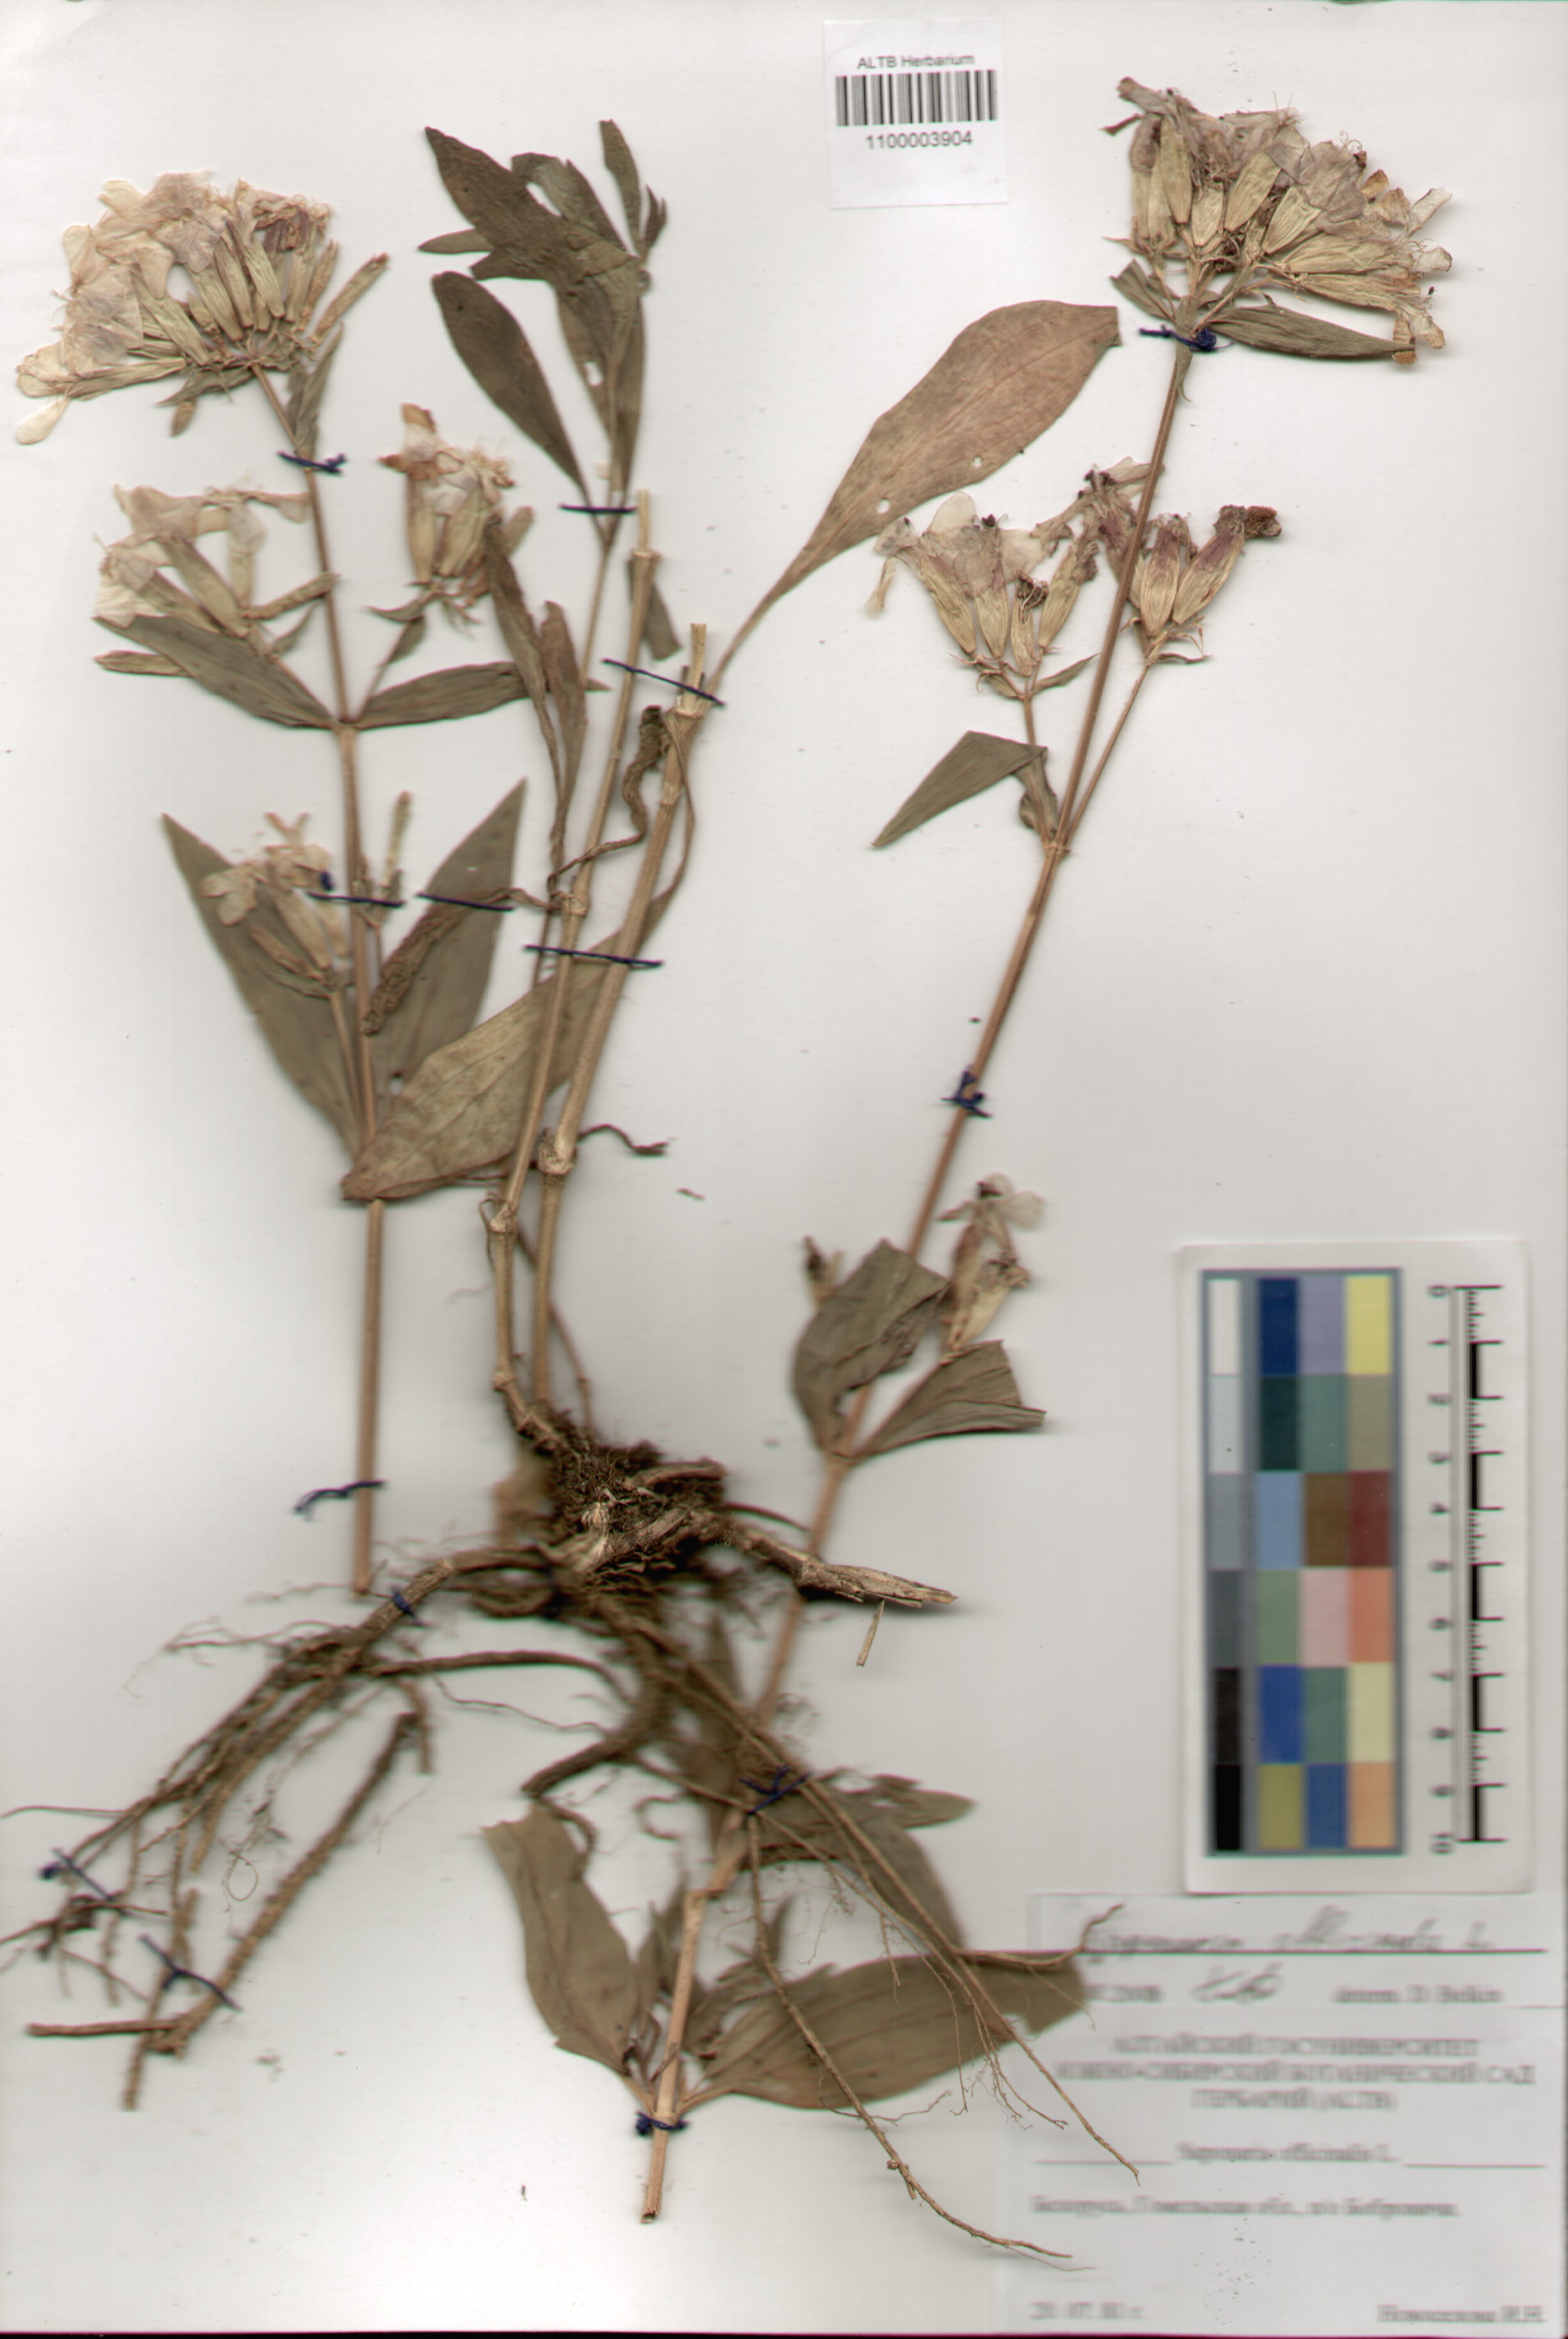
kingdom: Plantae
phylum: Tracheophyta
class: Magnoliopsida
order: Caryophyllales
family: Caryophyllaceae
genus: Saponaria
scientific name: Saponaria officinalis
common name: Soapwort
